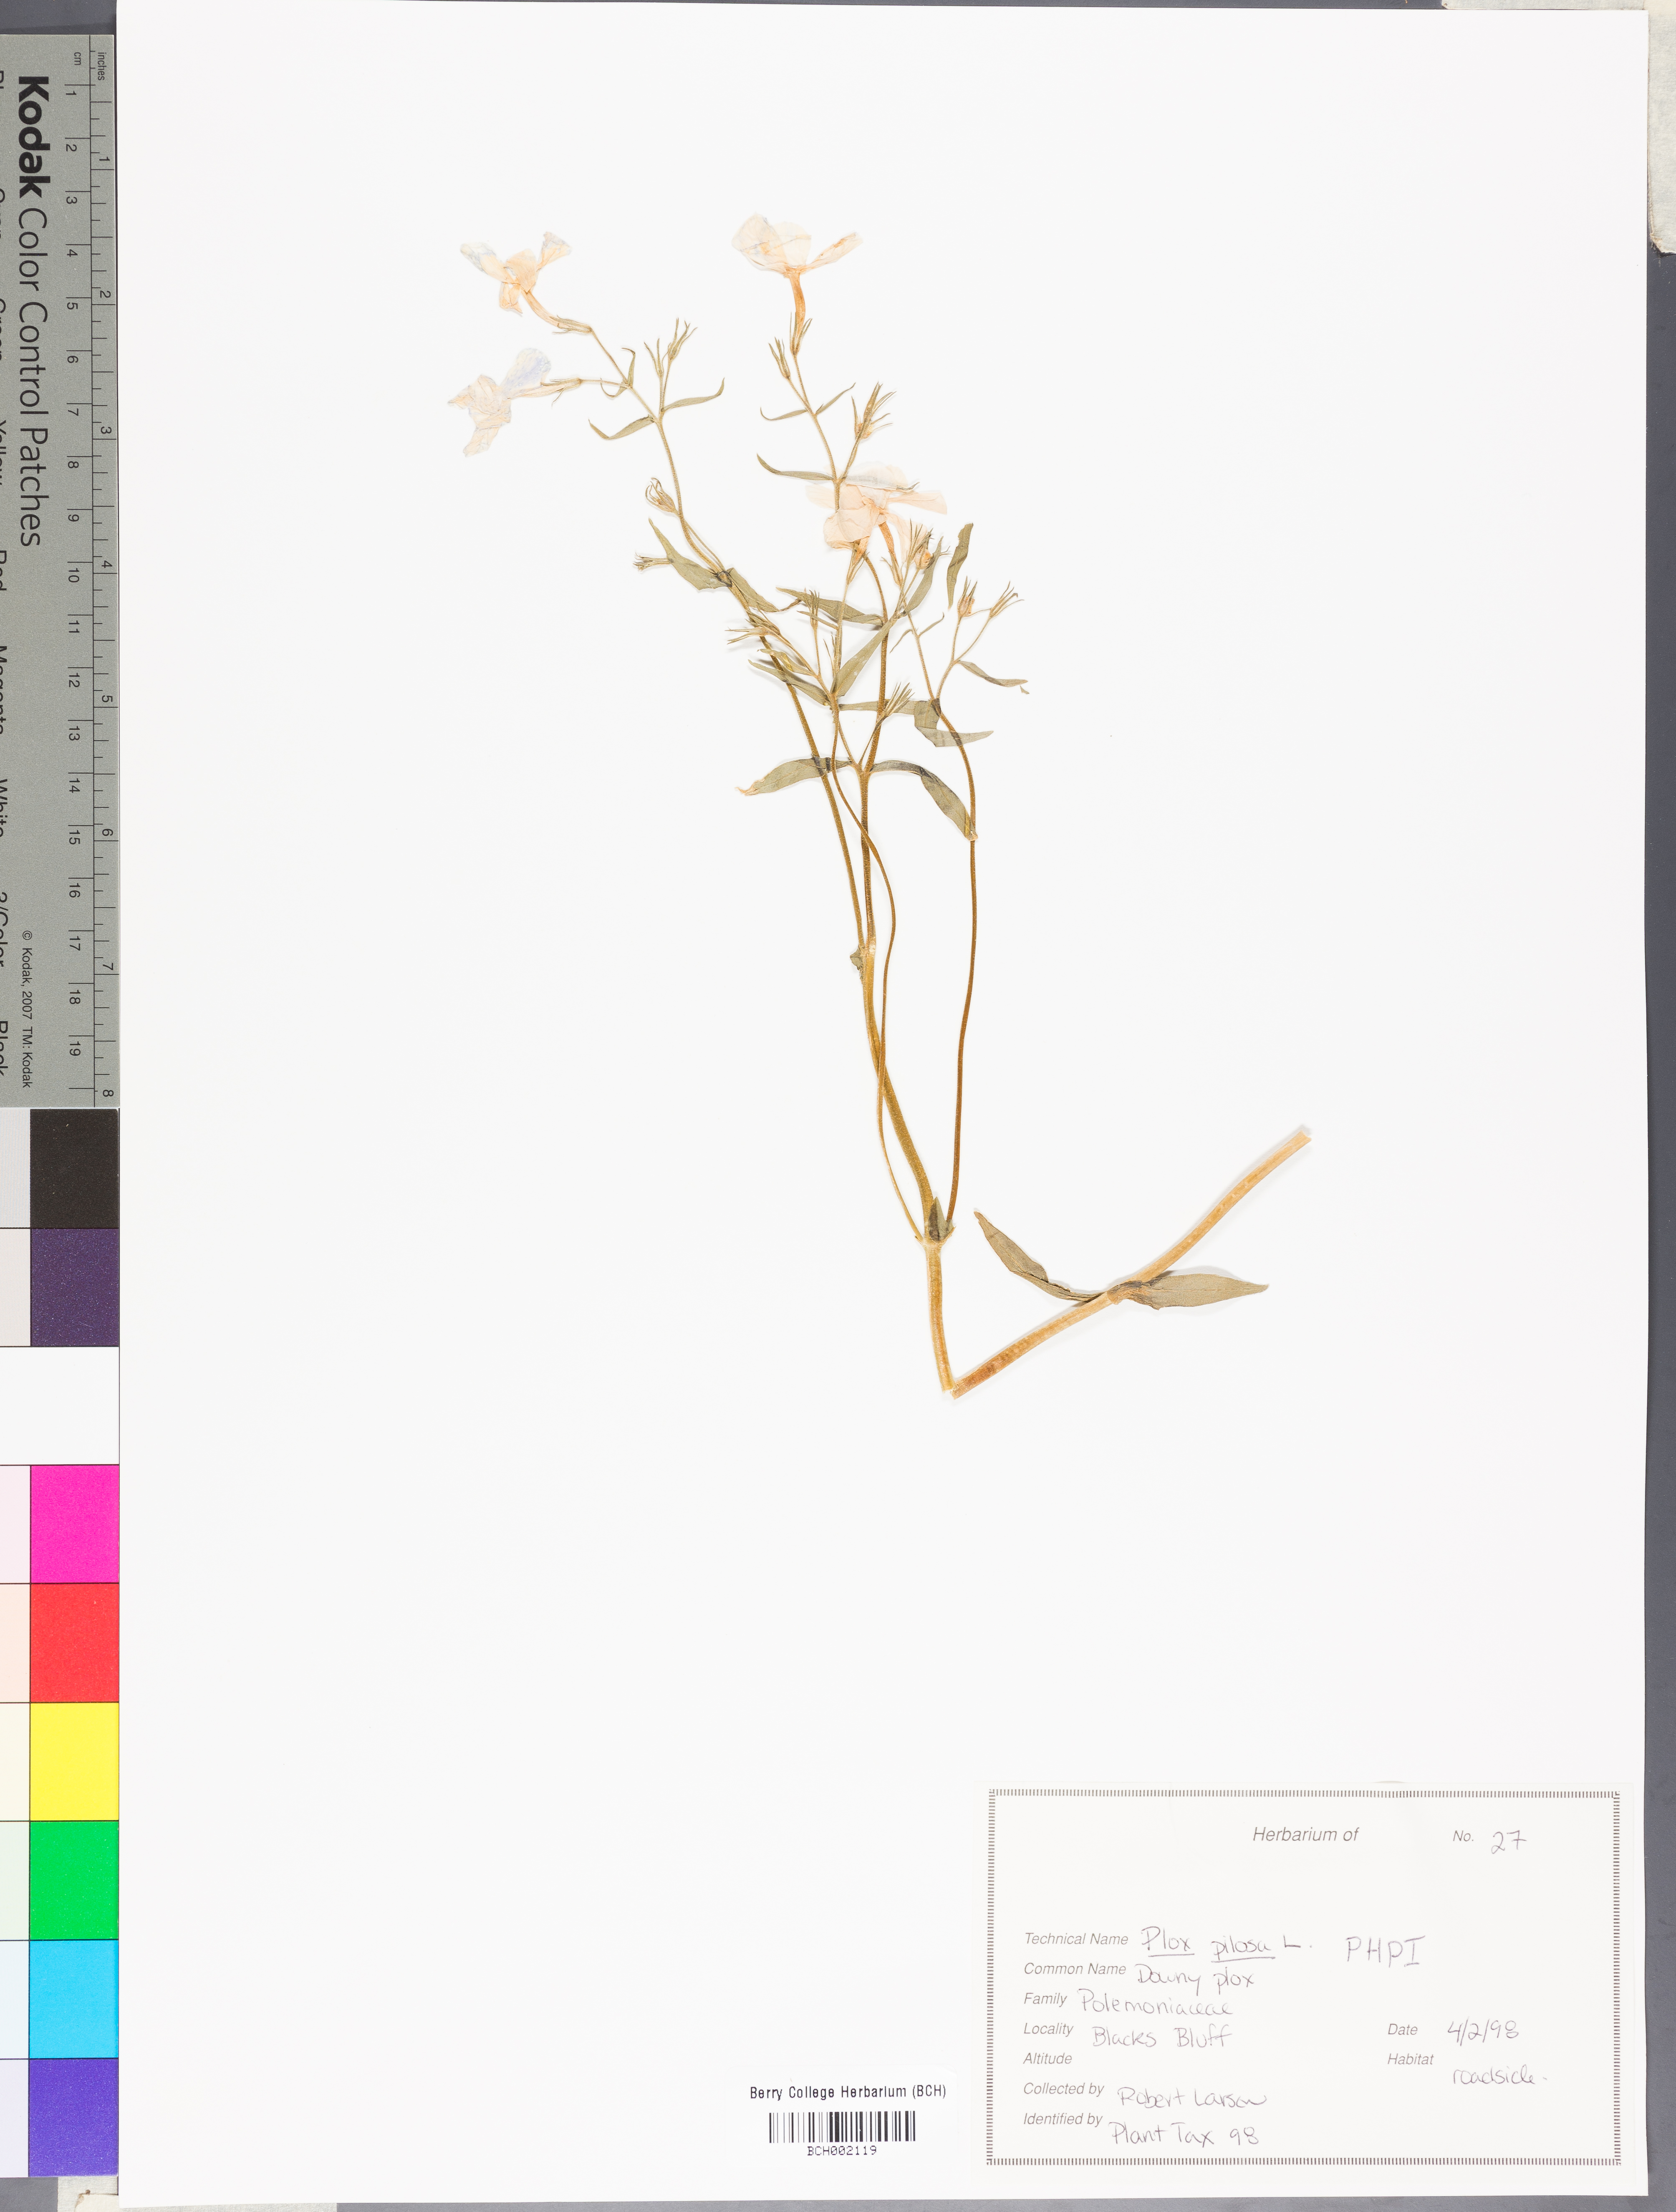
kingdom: Plantae
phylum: Tracheophyta
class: Magnoliopsida
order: Ericales
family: Polemoniaceae
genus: Phlox
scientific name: Phlox pilosa
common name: Prairie phlox
